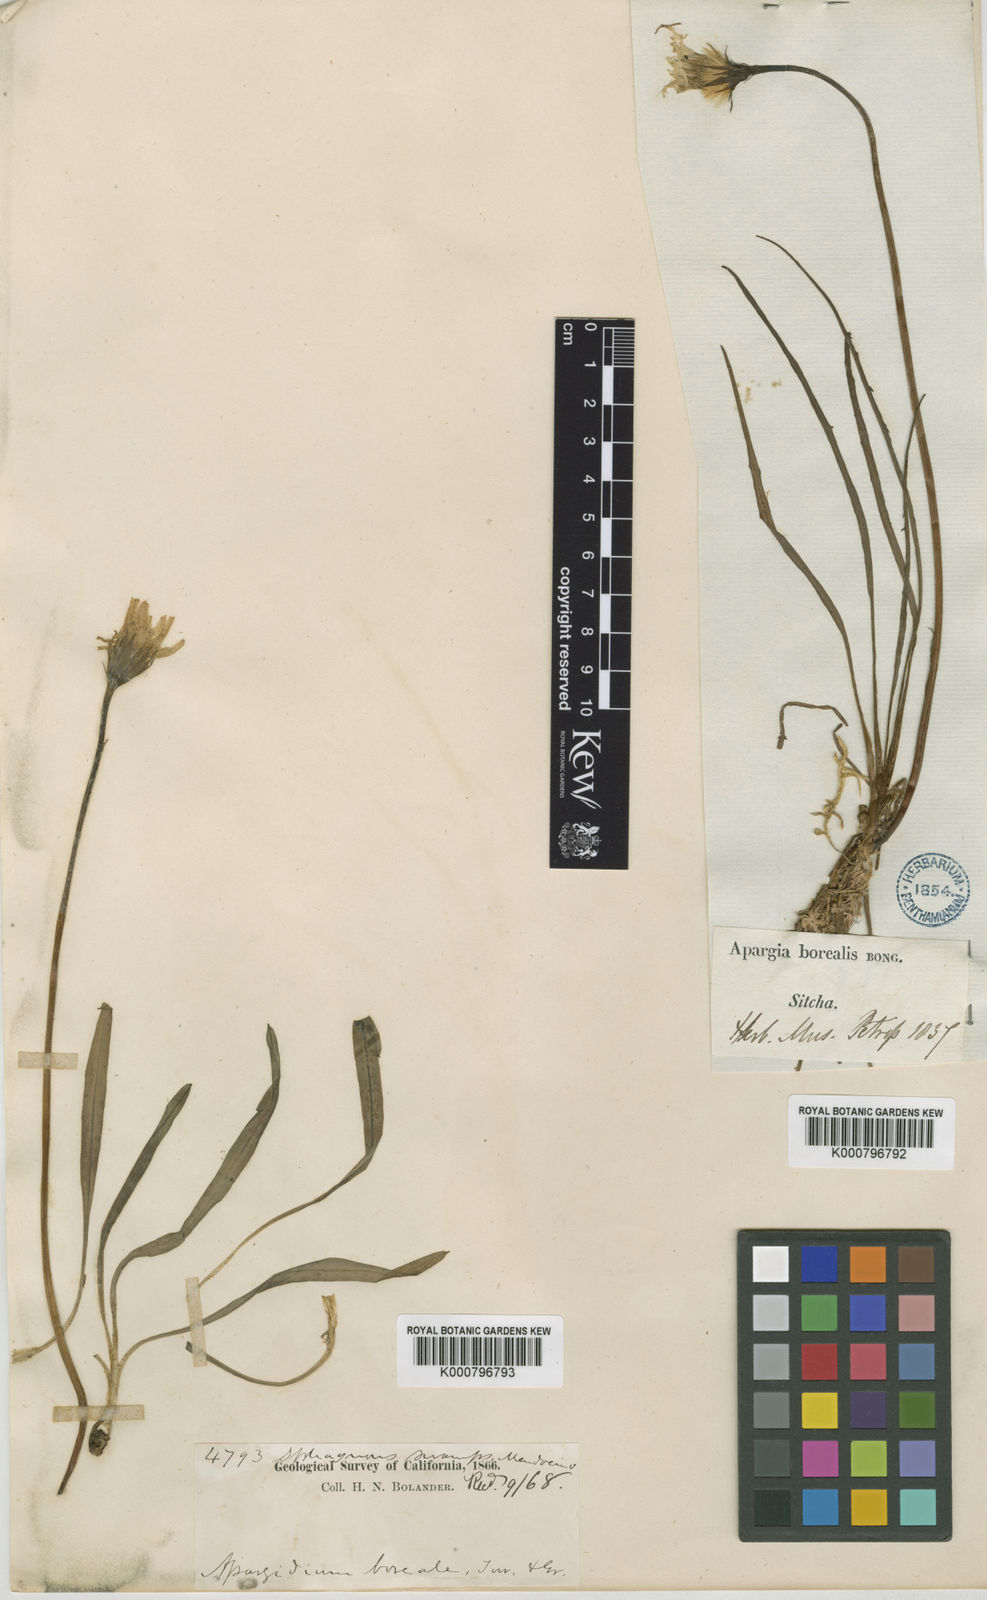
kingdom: Plantae
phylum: Tracheophyta
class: Magnoliopsida
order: Asterales
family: Asteraceae
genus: Microseris
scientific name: Microseris
